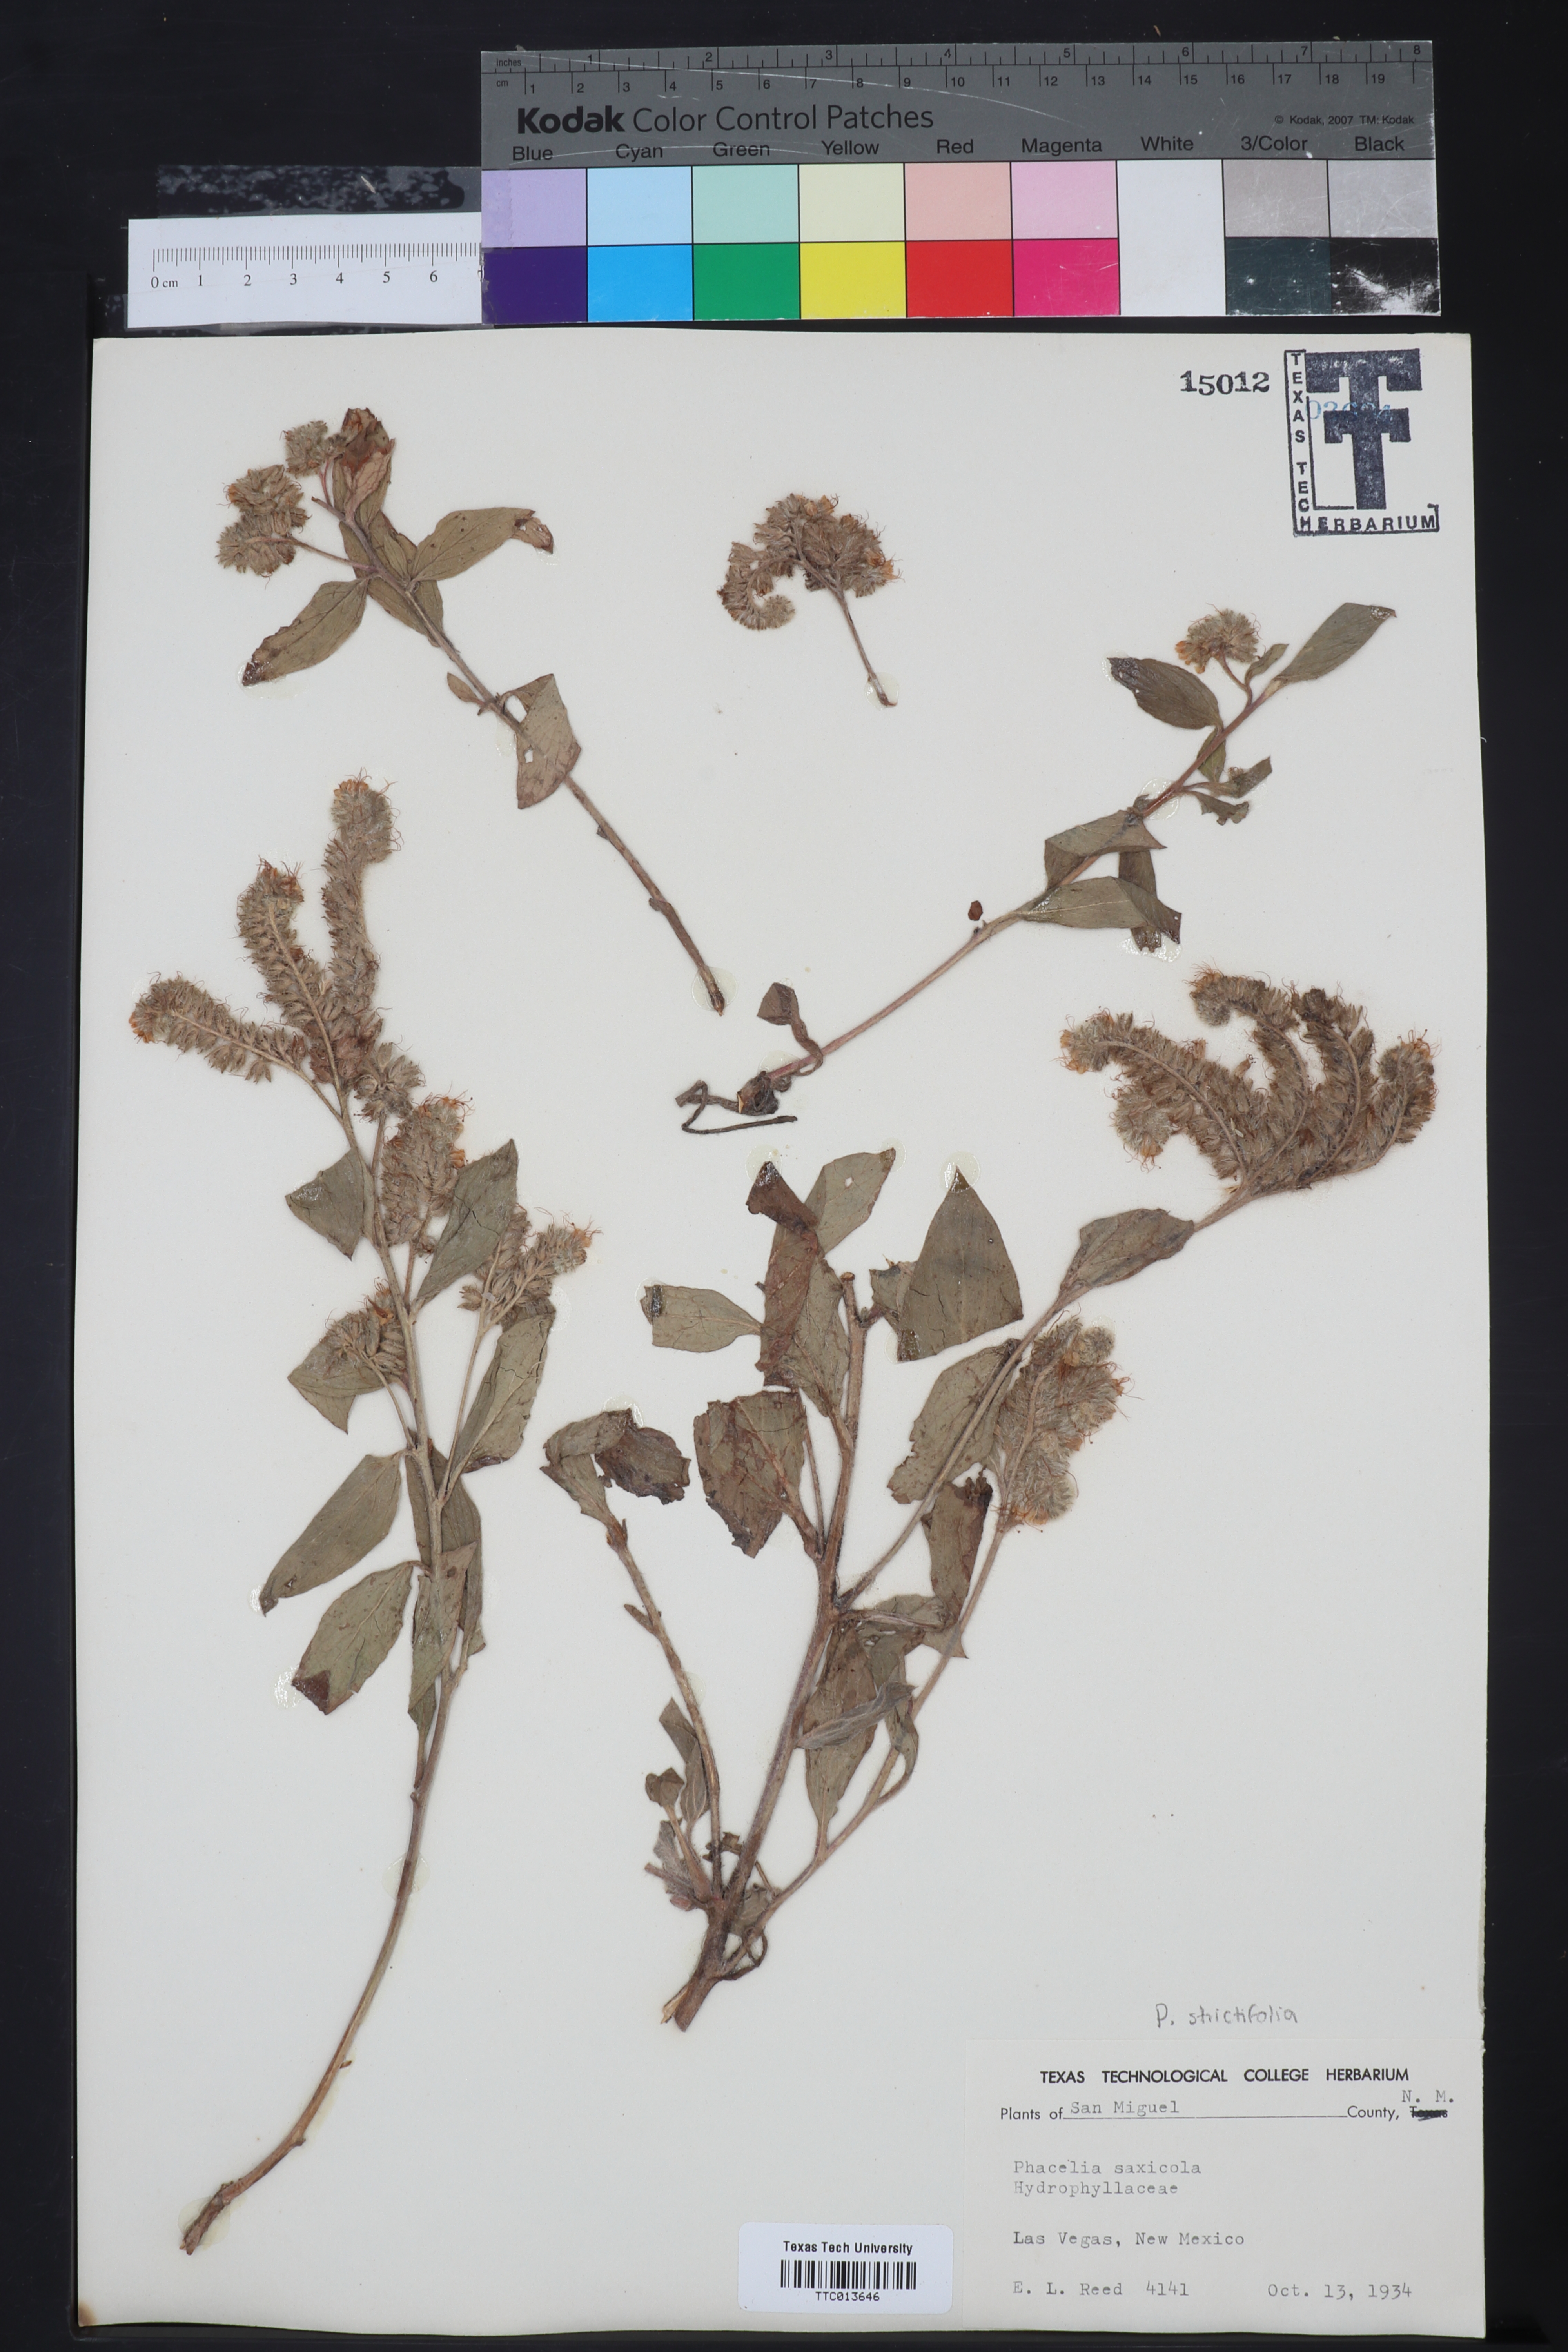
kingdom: Plantae
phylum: Tracheophyta
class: Magnoliopsida
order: Boraginales
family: Hydrophyllaceae
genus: Phacelia
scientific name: Phacelia saxicola
